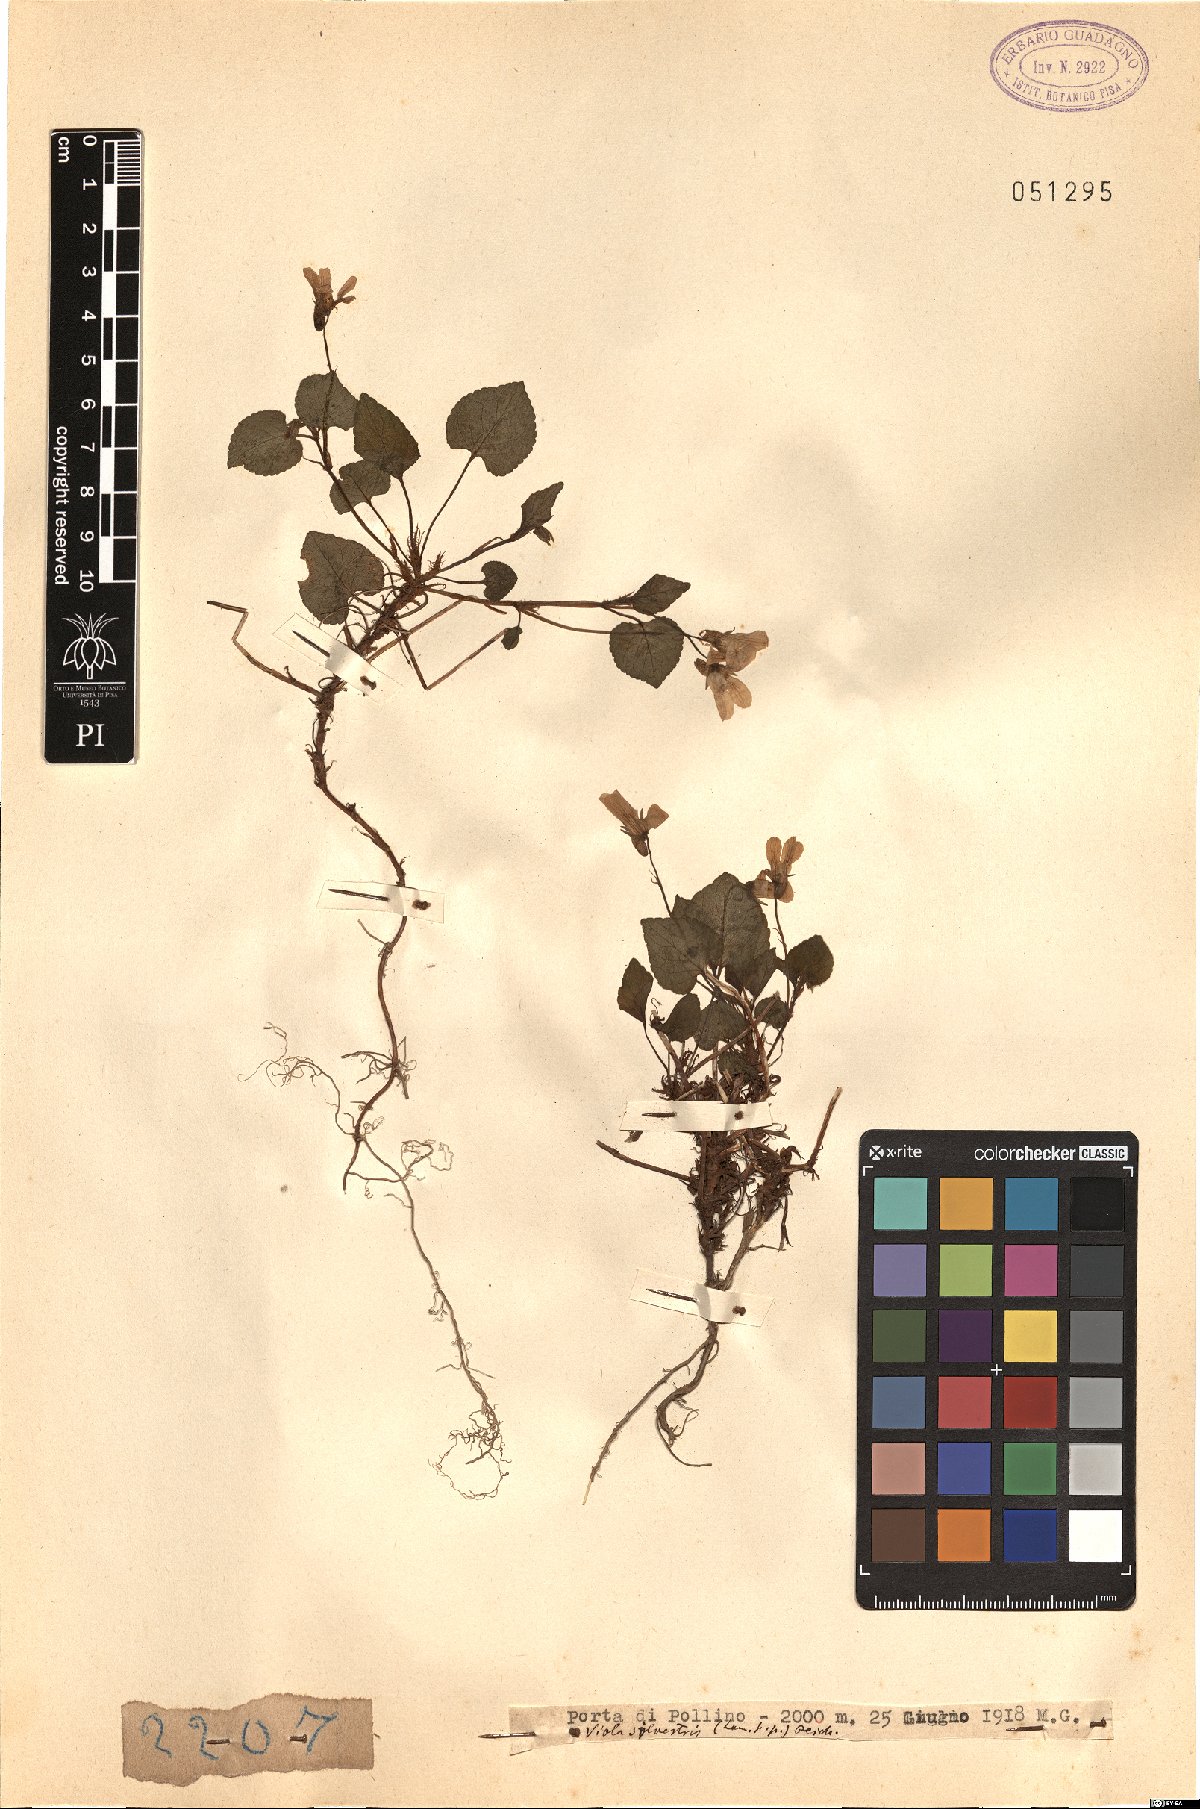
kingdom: Plantae
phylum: Tracheophyta
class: Magnoliopsida
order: Malpighiales
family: Violaceae
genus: Viola
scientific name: Viola canina
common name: Heath dog-violet
